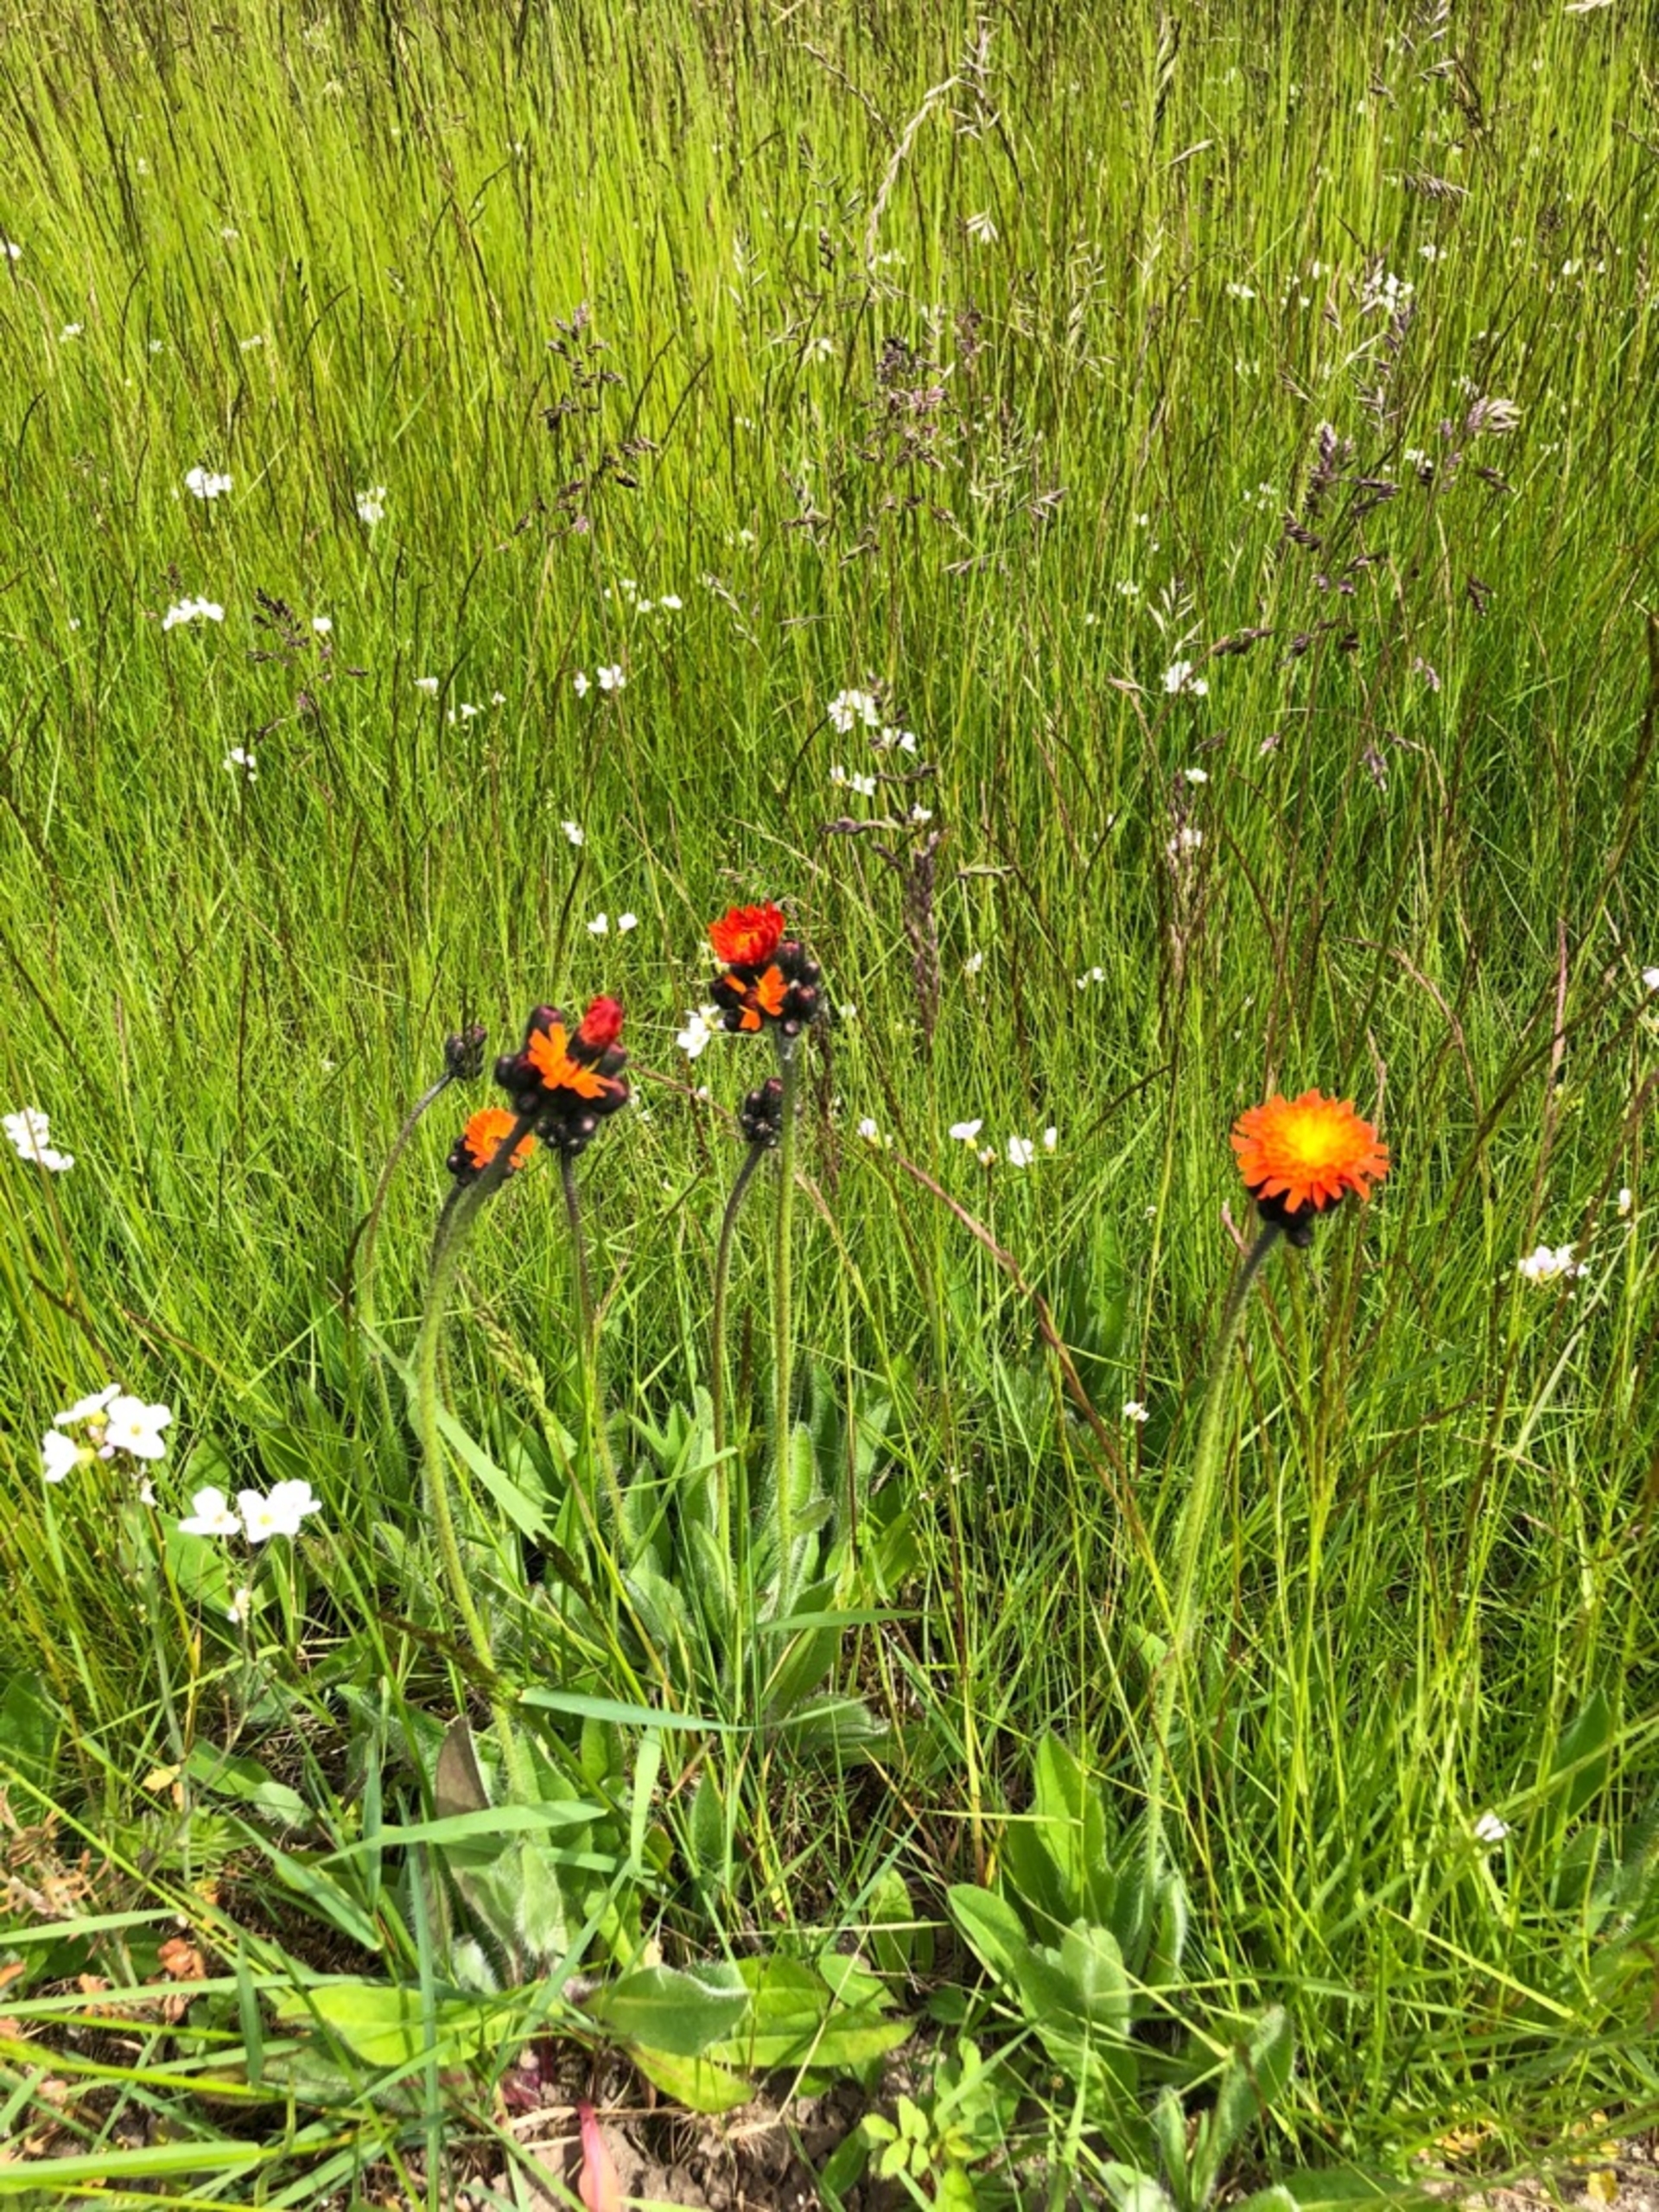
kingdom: Plantae
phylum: Tracheophyta
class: Magnoliopsida
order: Asterales
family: Asteraceae
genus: Pilosella
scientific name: Pilosella aurantiaca
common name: Pomerans-høgeurt
